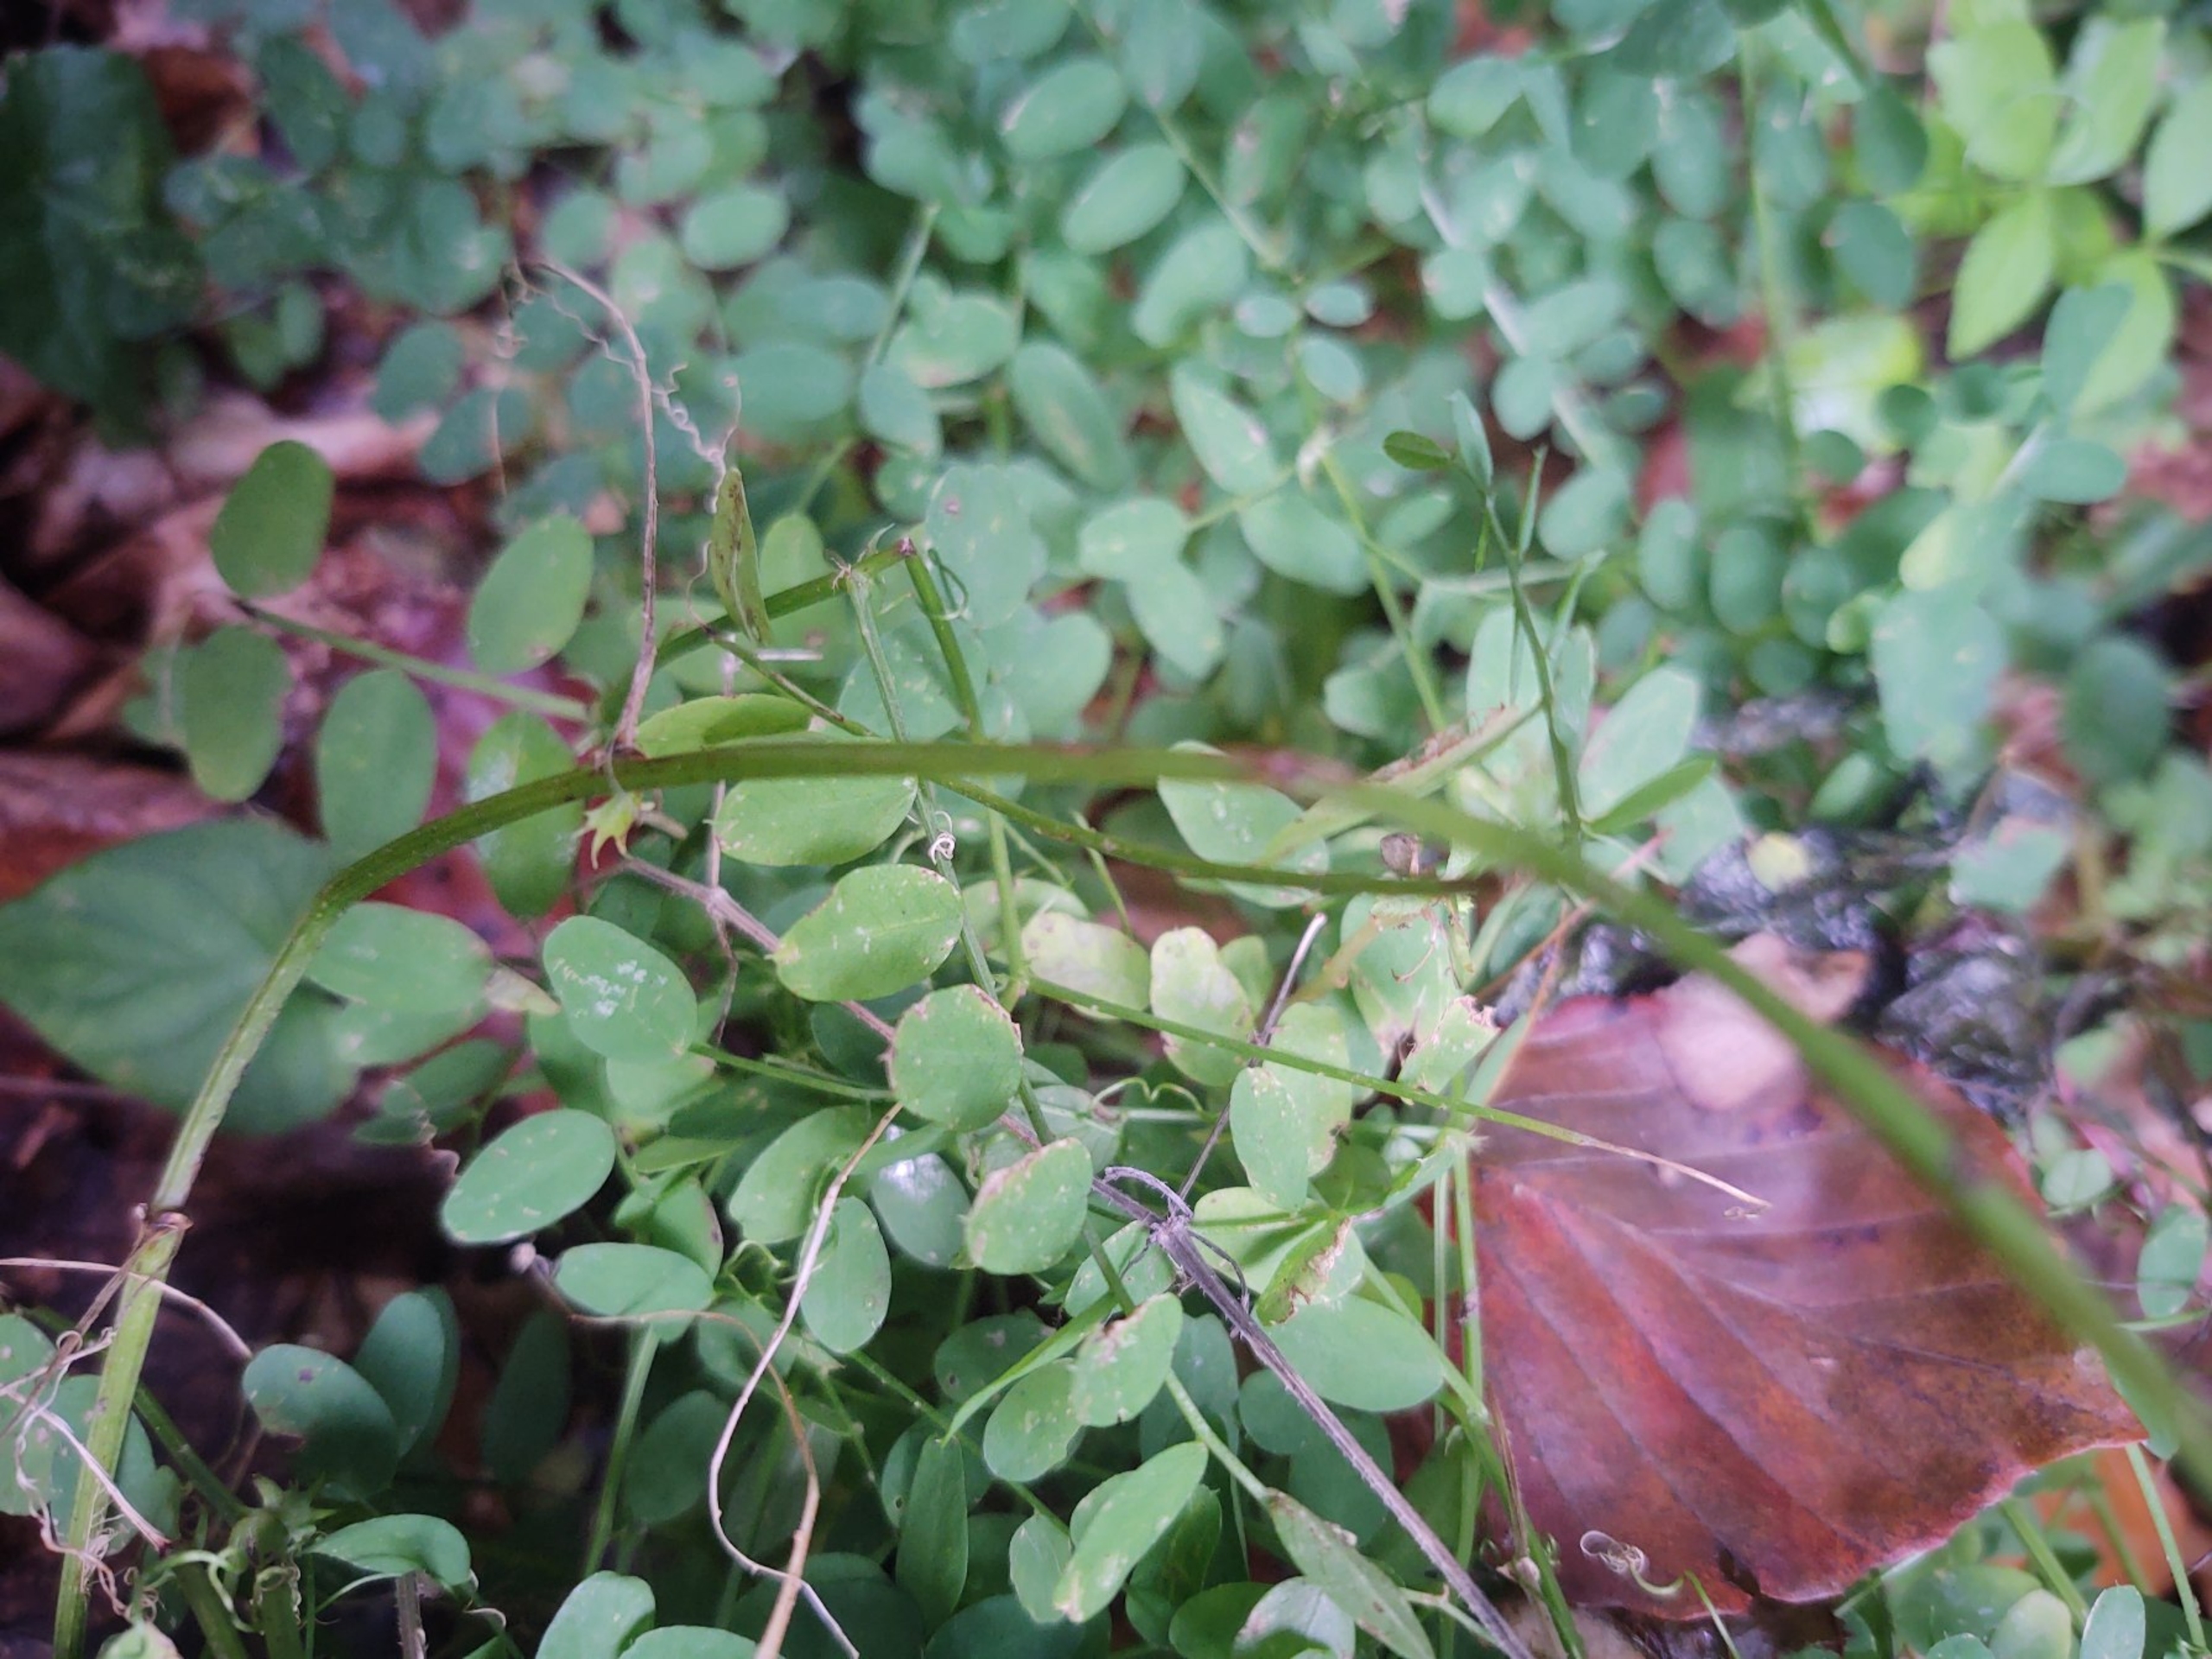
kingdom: Plantae
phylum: Tracheophyta
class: Magnoliopsida
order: Fabales
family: Fabaceae
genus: Vicia
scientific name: Vicia sylvatica
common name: Skov-vikke
